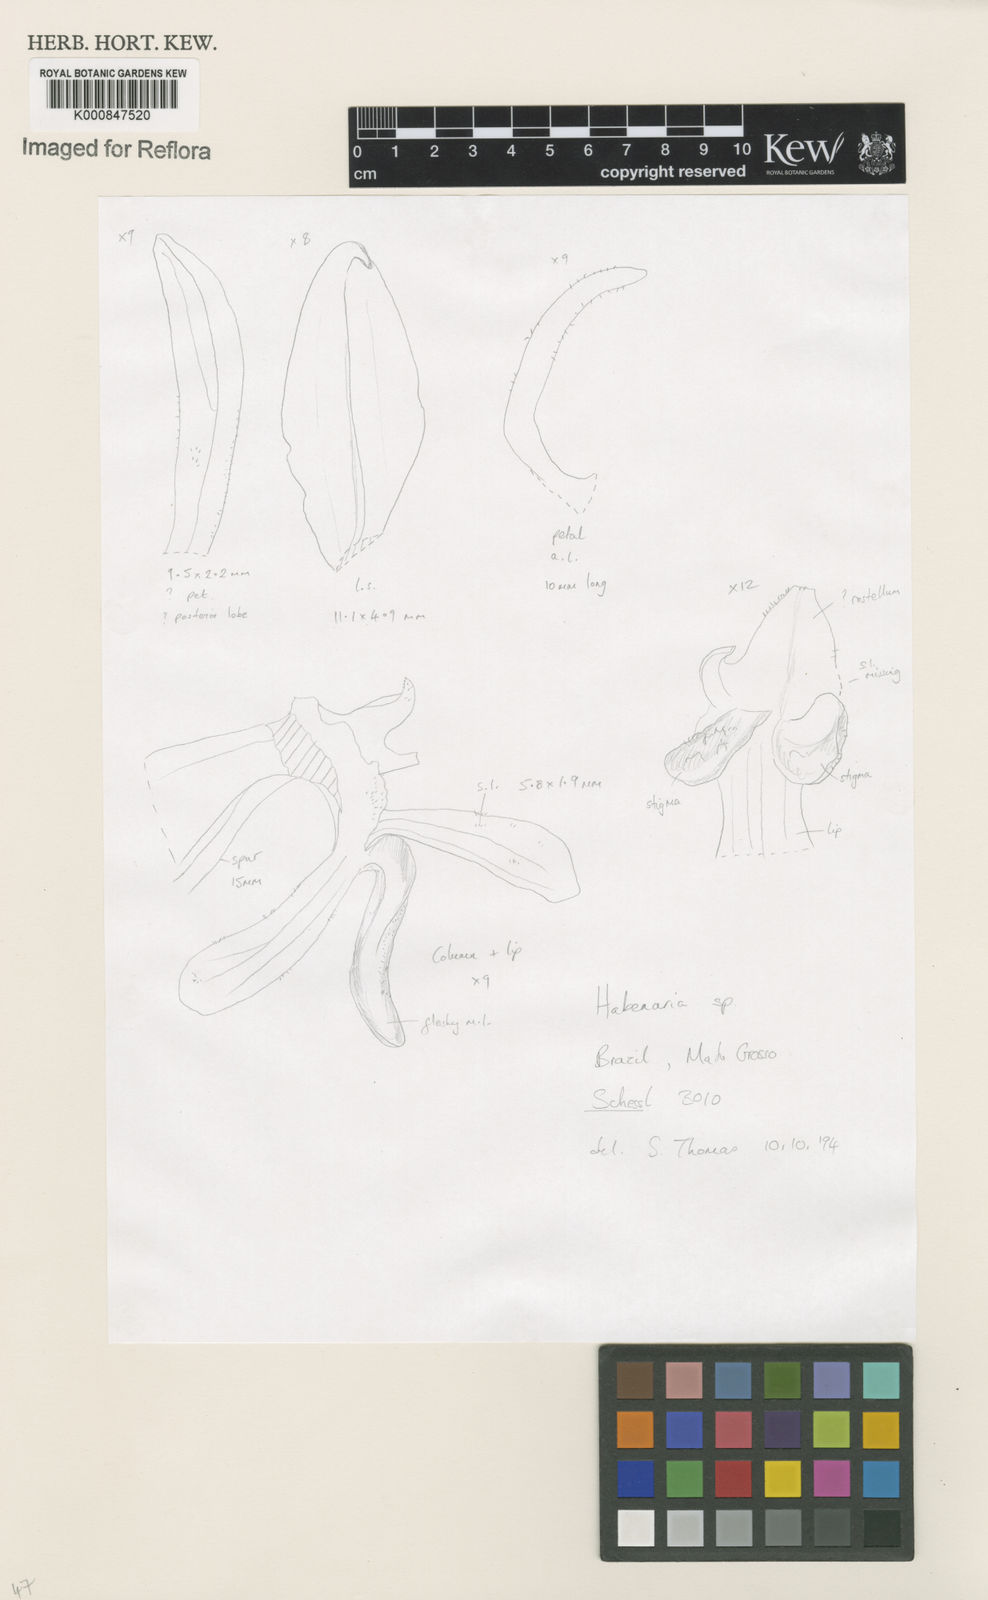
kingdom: Plantae
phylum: Tracheophyta
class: Liliopsida
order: Asparagales
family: Orchidaceae
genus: Habenaria
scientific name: Habenaria
